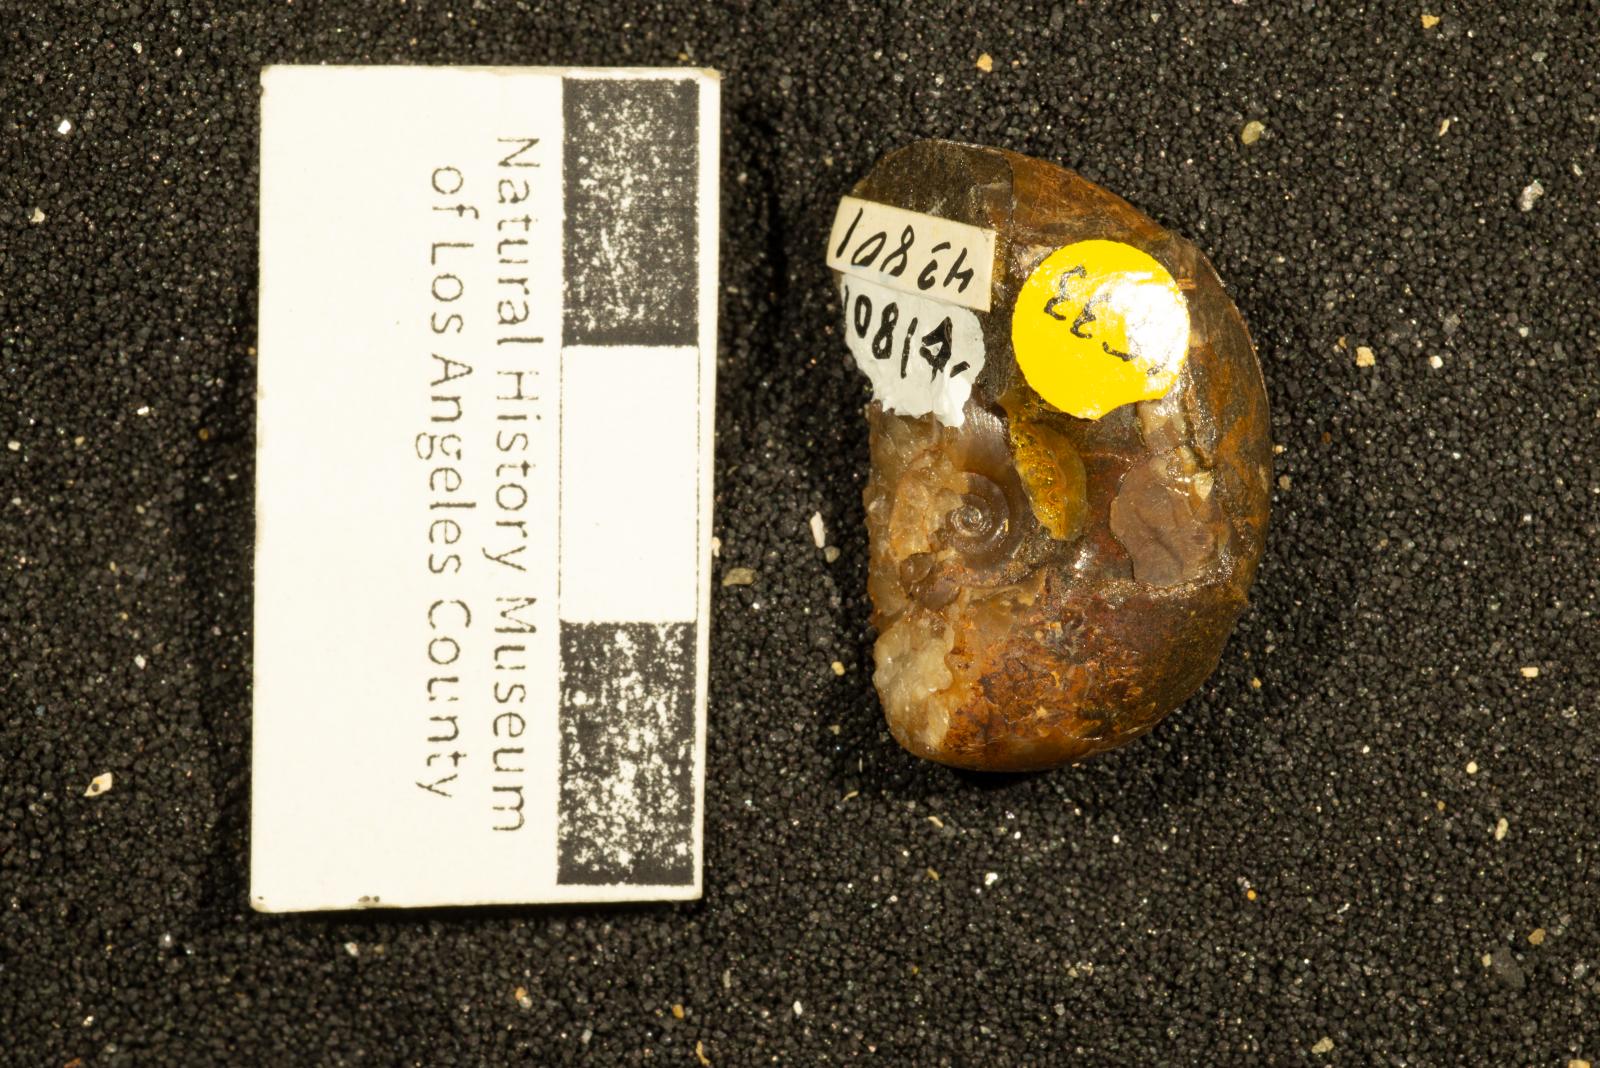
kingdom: Animalia
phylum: Mollusca
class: Cephalopoda
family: Lytoceratidae
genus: Lytoceras
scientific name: Lytoceras glabrus
